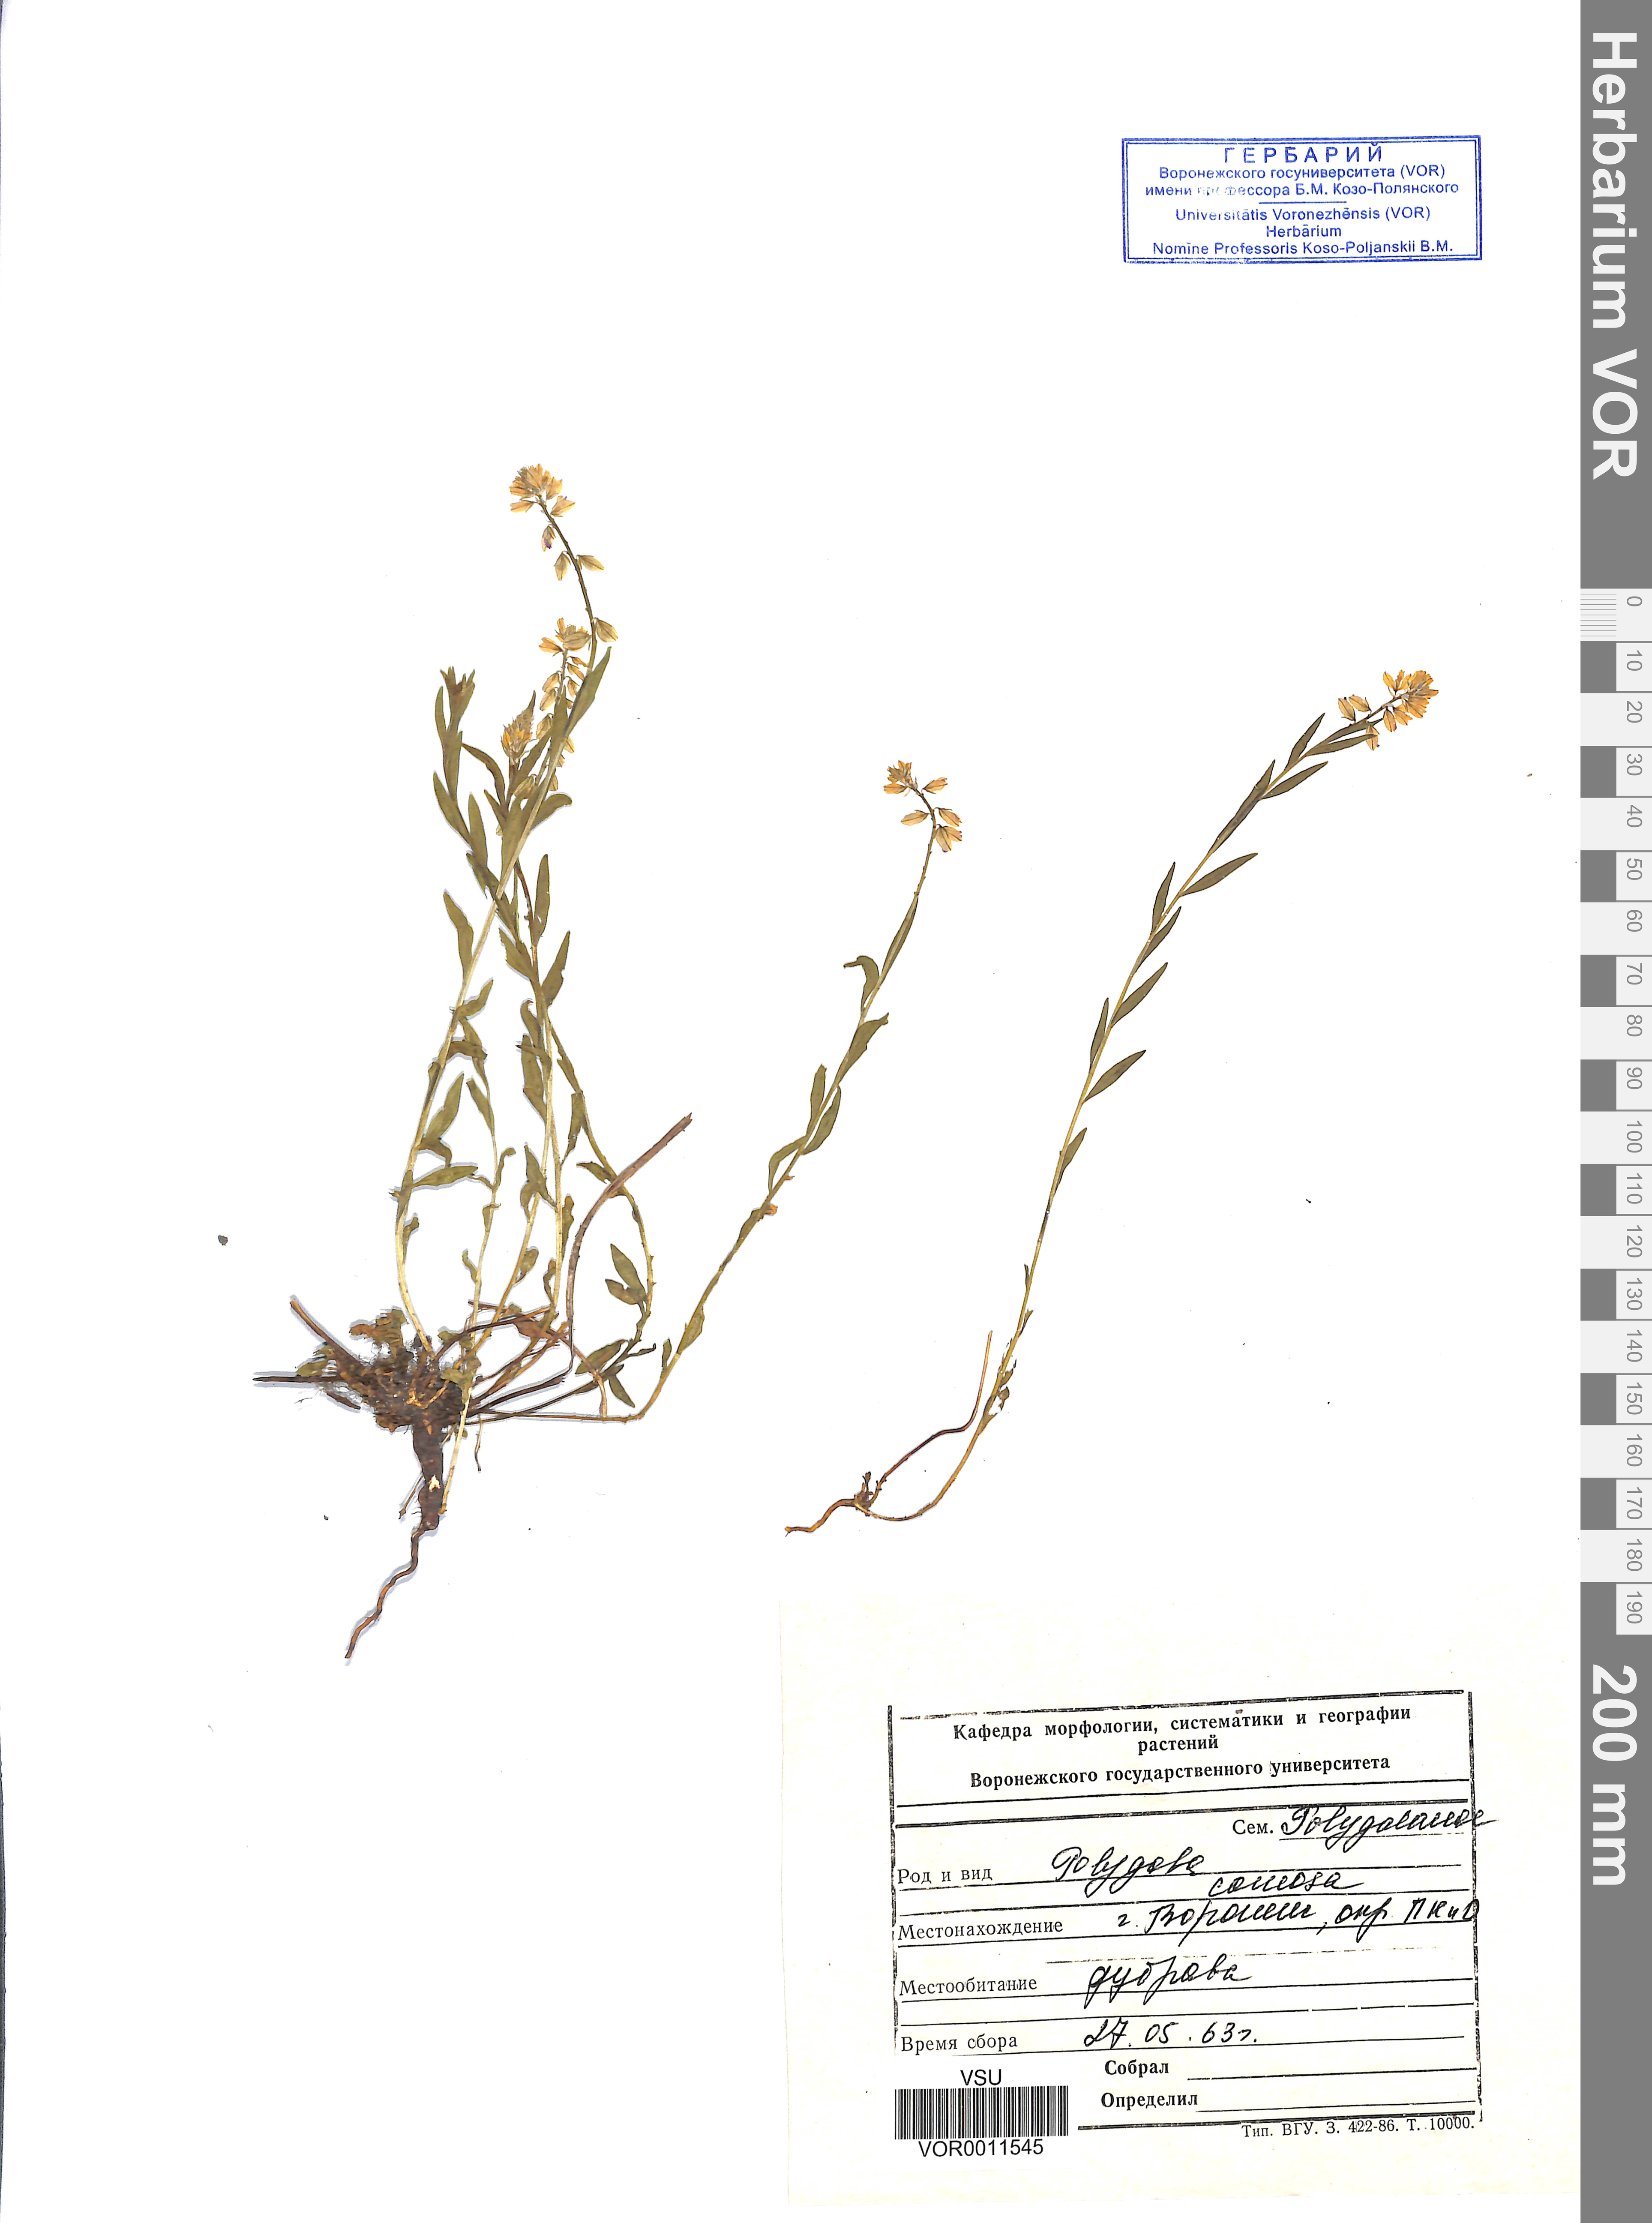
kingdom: Plantae
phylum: Tracheophyta
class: Magnoliopsida
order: Fabales
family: Polygalaceae
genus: Polygala
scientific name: Polygala comosa
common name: Tufted milkwort
